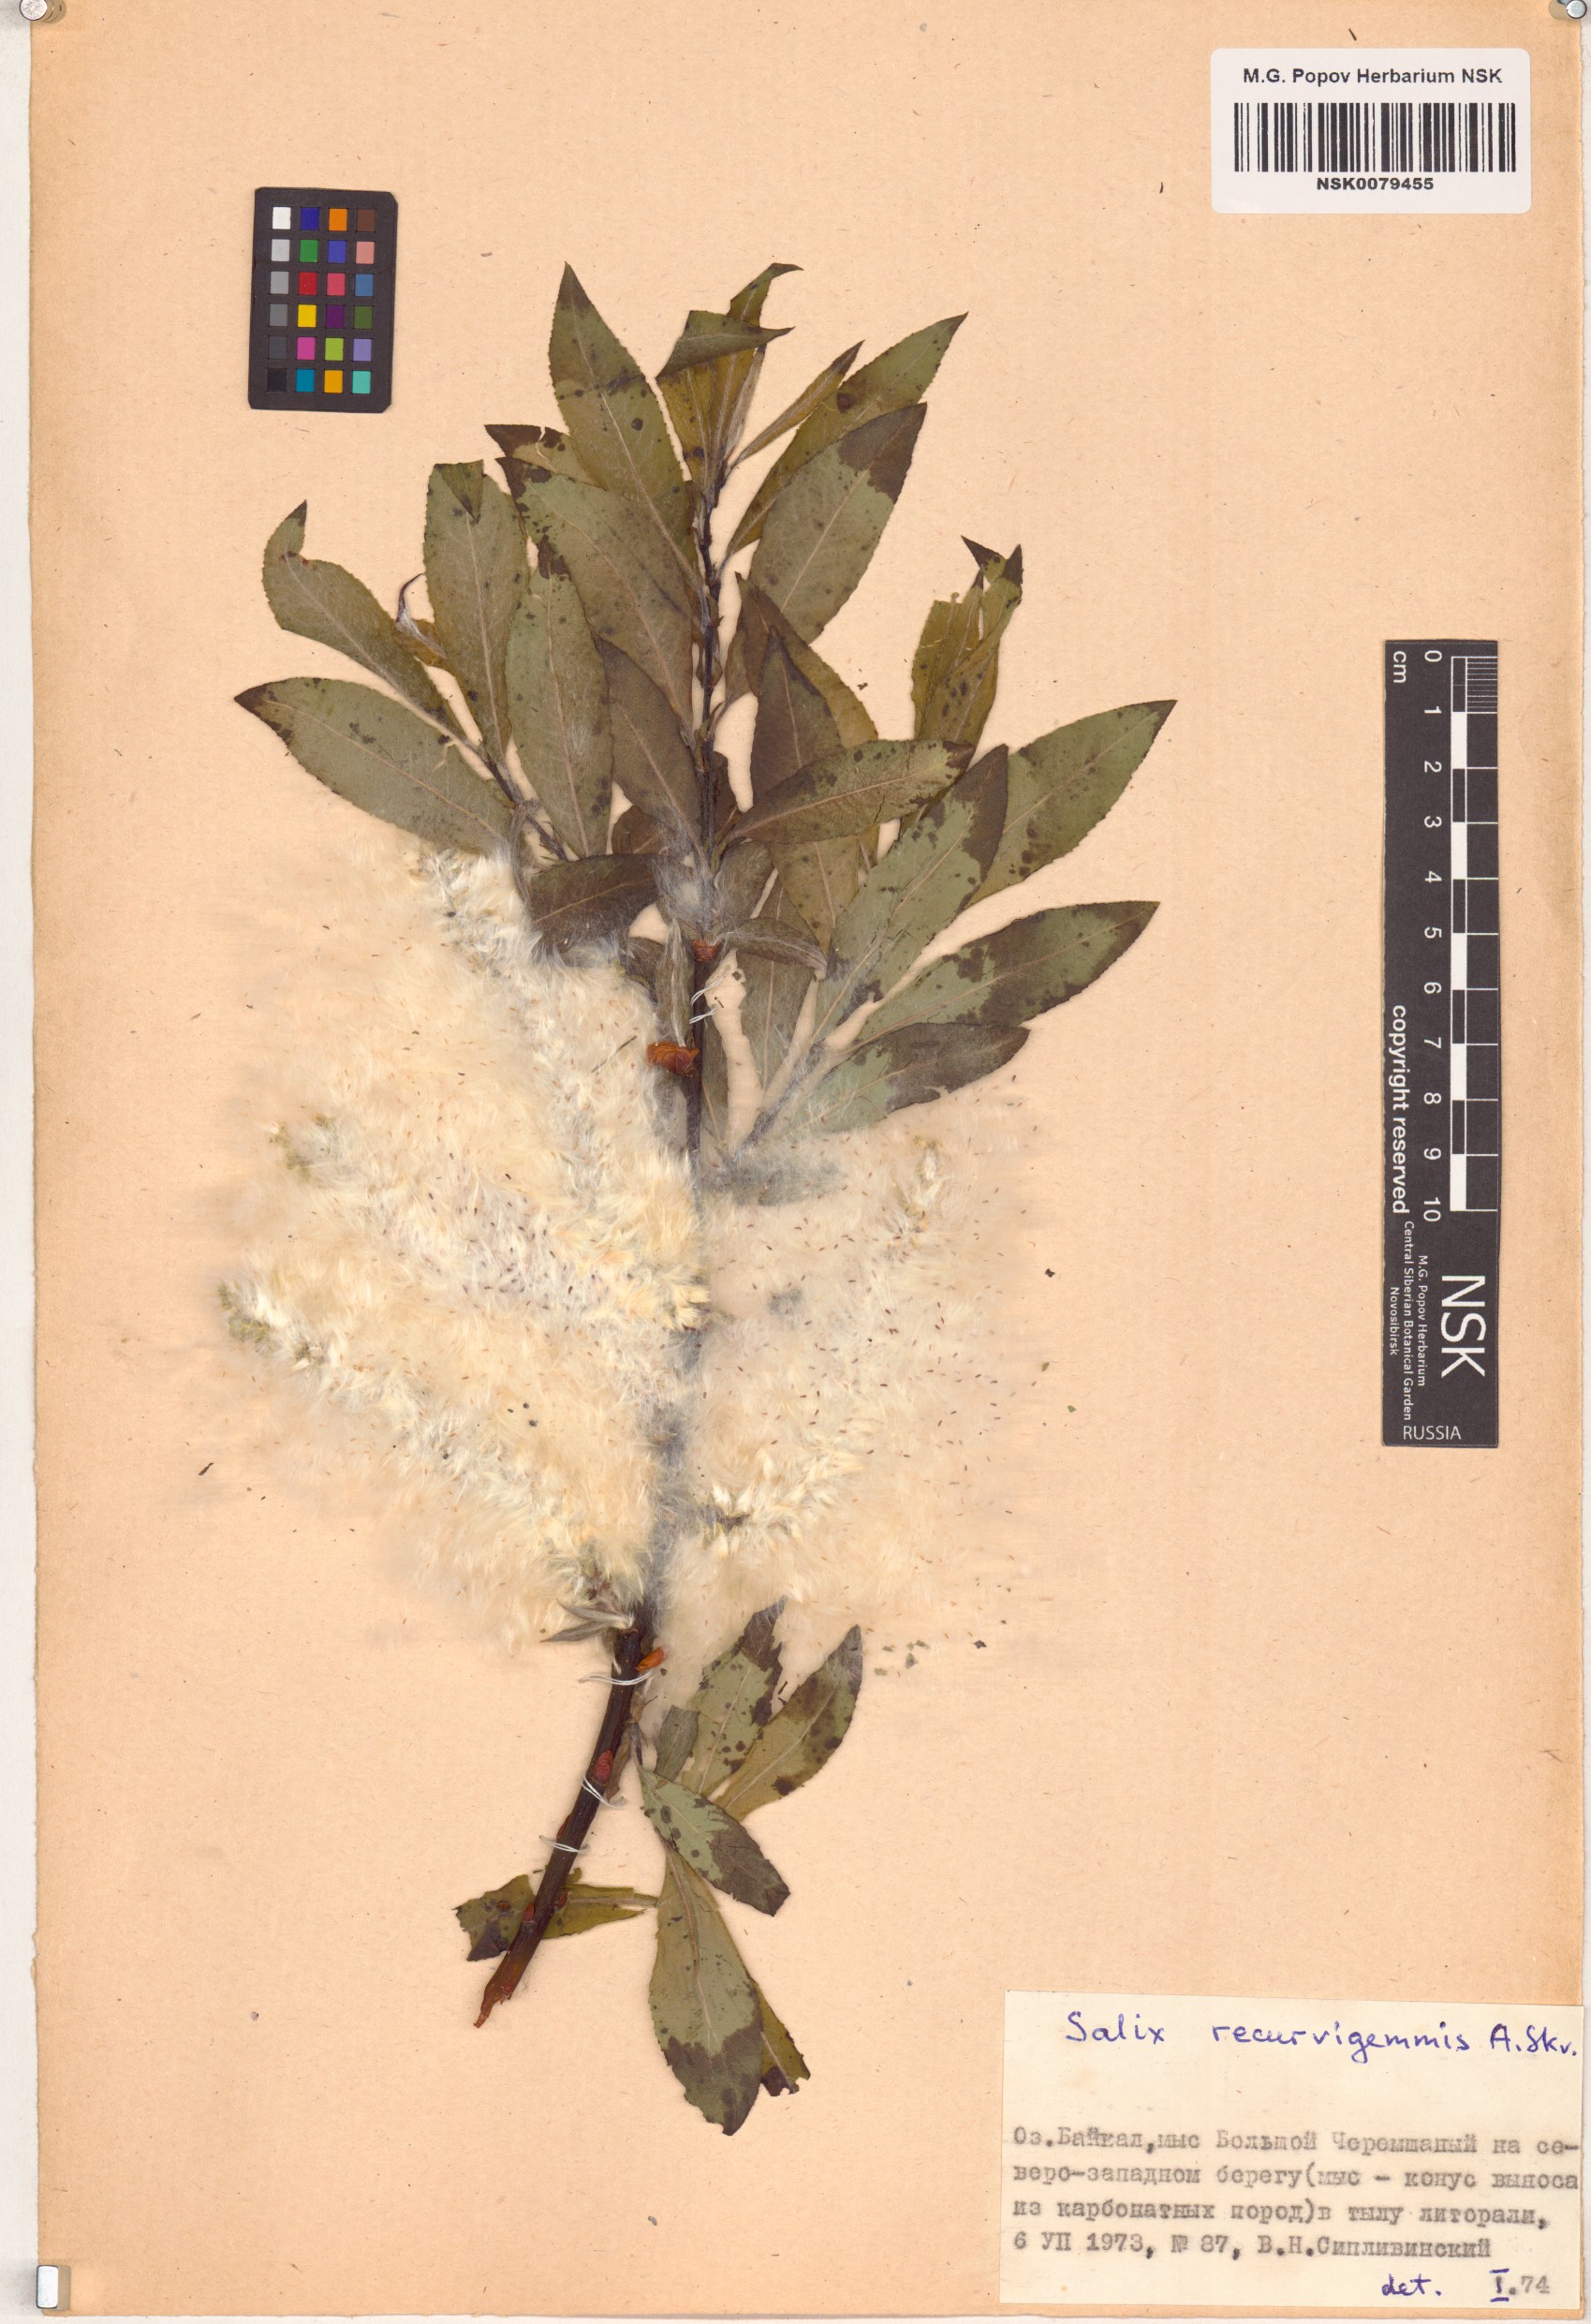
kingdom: Plantae
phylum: Tracheophyta
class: Magnoliopsida
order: Malpighiales
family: Salicaceae
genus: Salix
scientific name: Salix recurvigemmata
